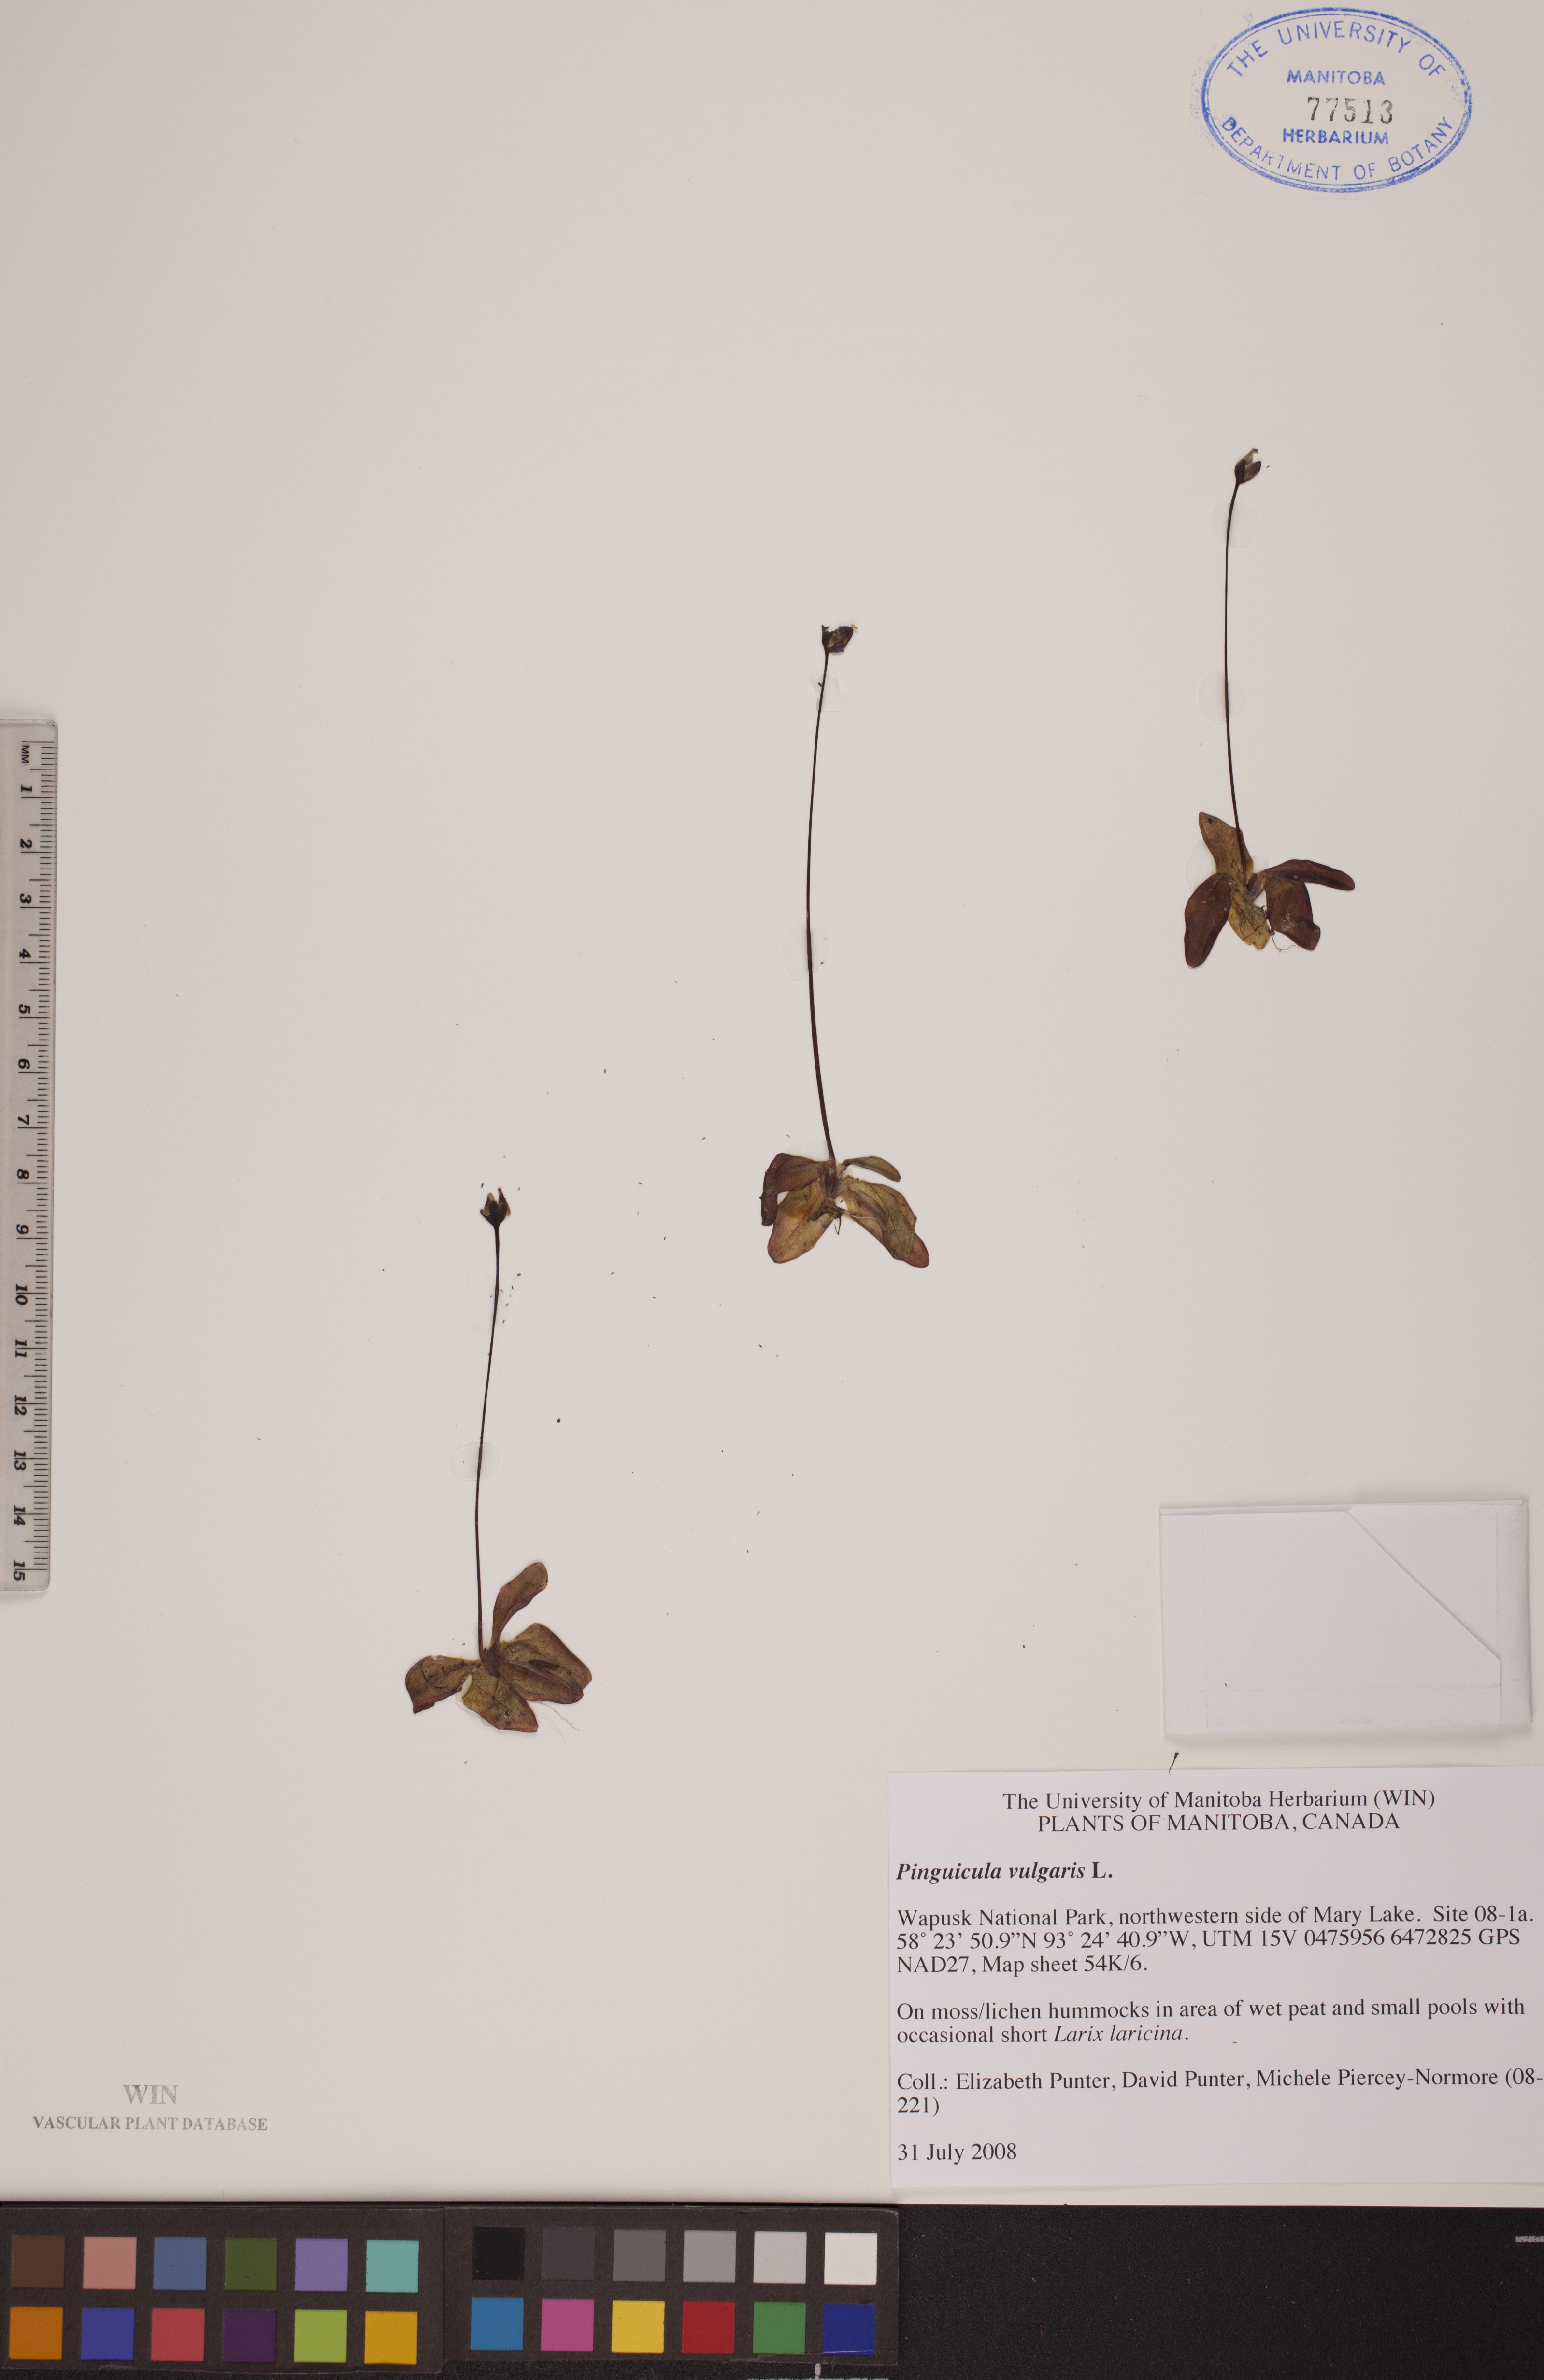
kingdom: Plantae
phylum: Tracheophyta
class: Magnoliopsida
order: Lamiales
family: Lentibulariaceae
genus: Pinguicula
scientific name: Pinguicula vulgaris
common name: Common butterwort
